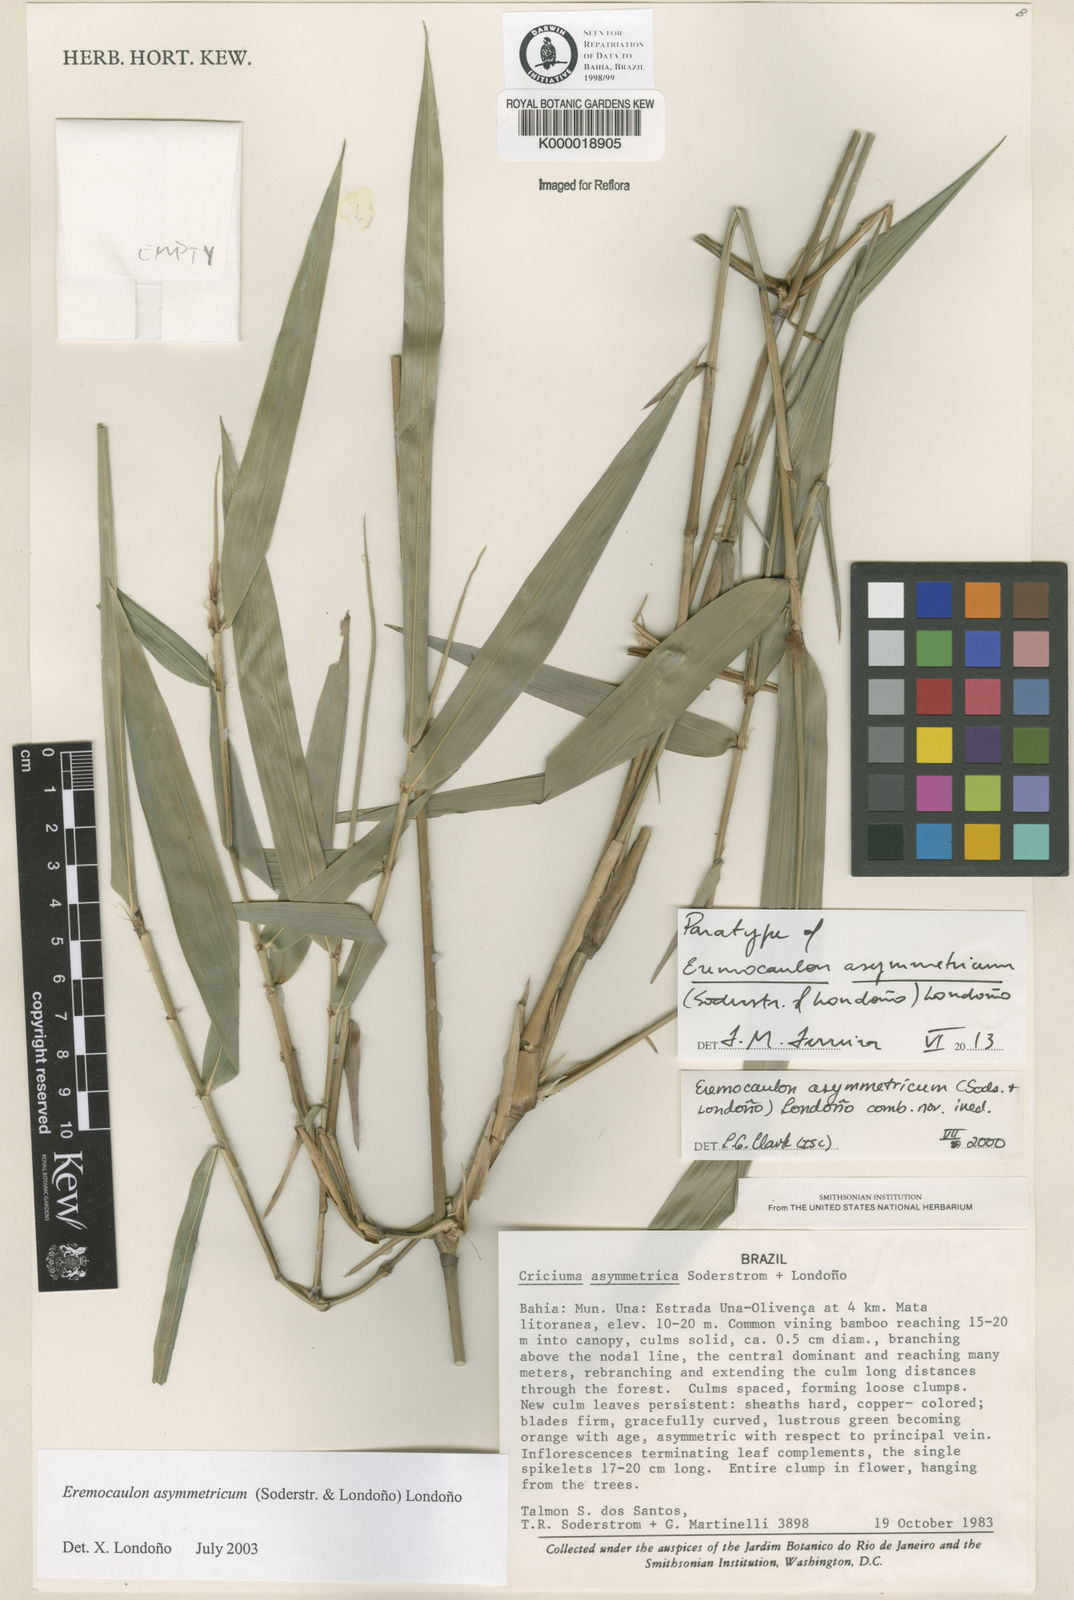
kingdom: Plantae
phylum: Tracheophyta
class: Liliopsida
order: Poales
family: Poaceae
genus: Eremocaulon
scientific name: Eremocaulon
